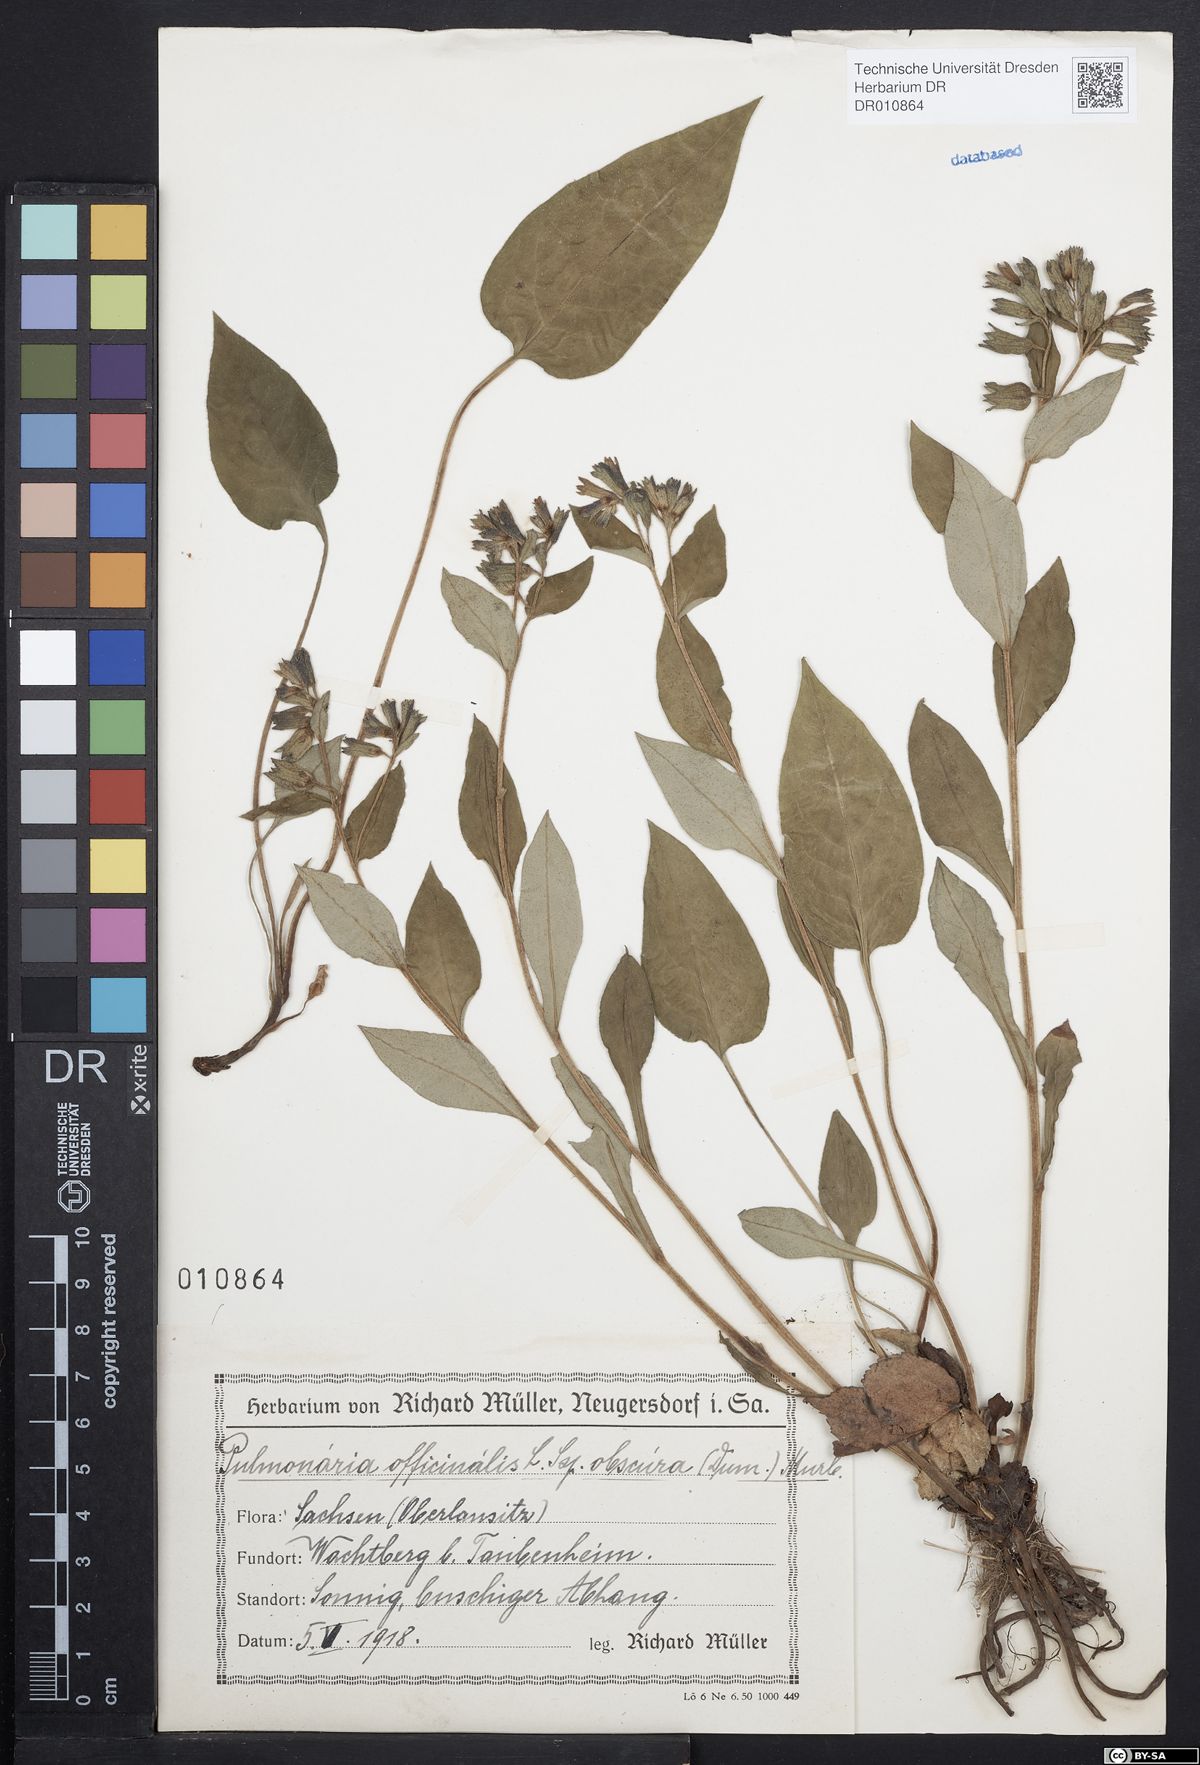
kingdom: Plantae
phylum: Tracheophyta
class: Magnoliopsida
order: Boraginales
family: Boraginaceae
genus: Pulmonaria
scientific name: Pulmonaria obscura
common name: Suffolk lungwort
